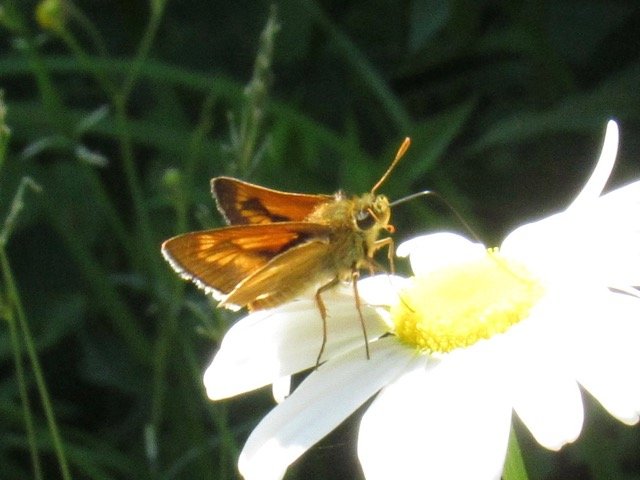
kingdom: Animalia
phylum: Arthropoda
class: Insecta
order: Lepidoptera
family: Hesperiidae
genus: Polites
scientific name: Polites
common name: Long Dash Skipper
